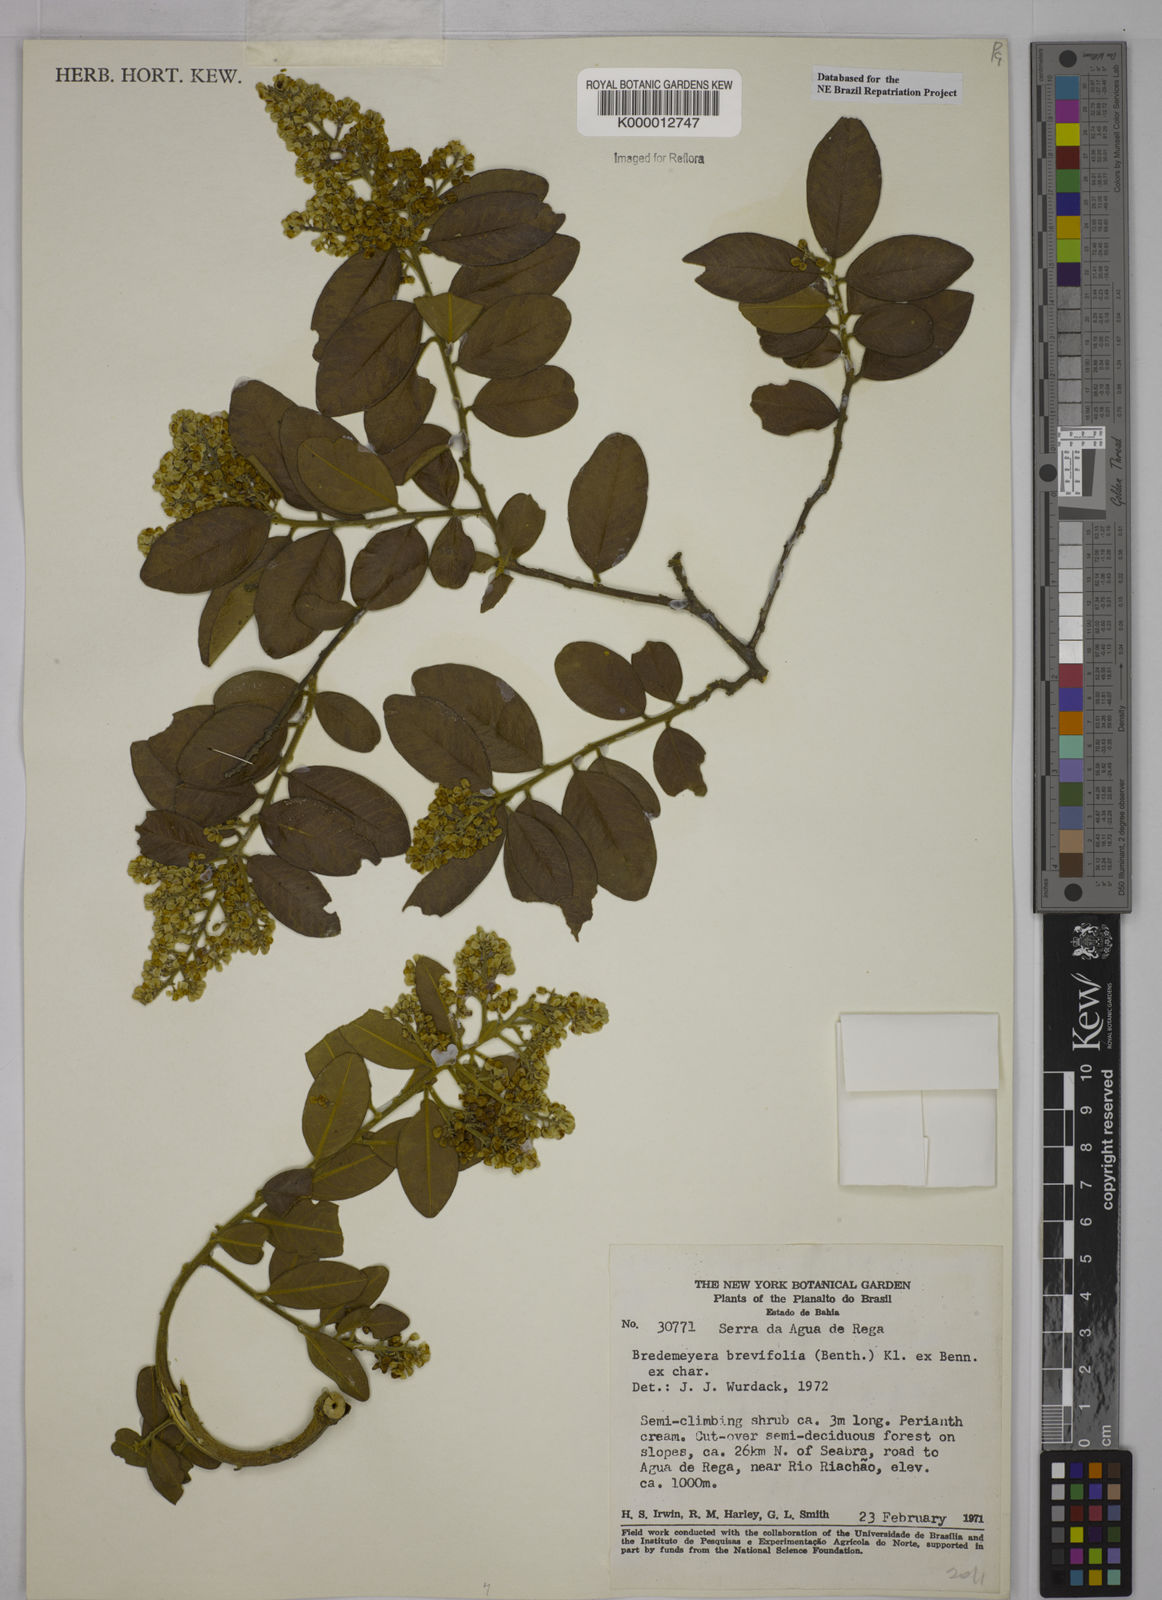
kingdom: Plantae
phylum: Tracheophyta
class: Magnoliopsida
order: Fabales
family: Polygalaceae
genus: Bredemeyera
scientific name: Bredemeyera brevifolia
